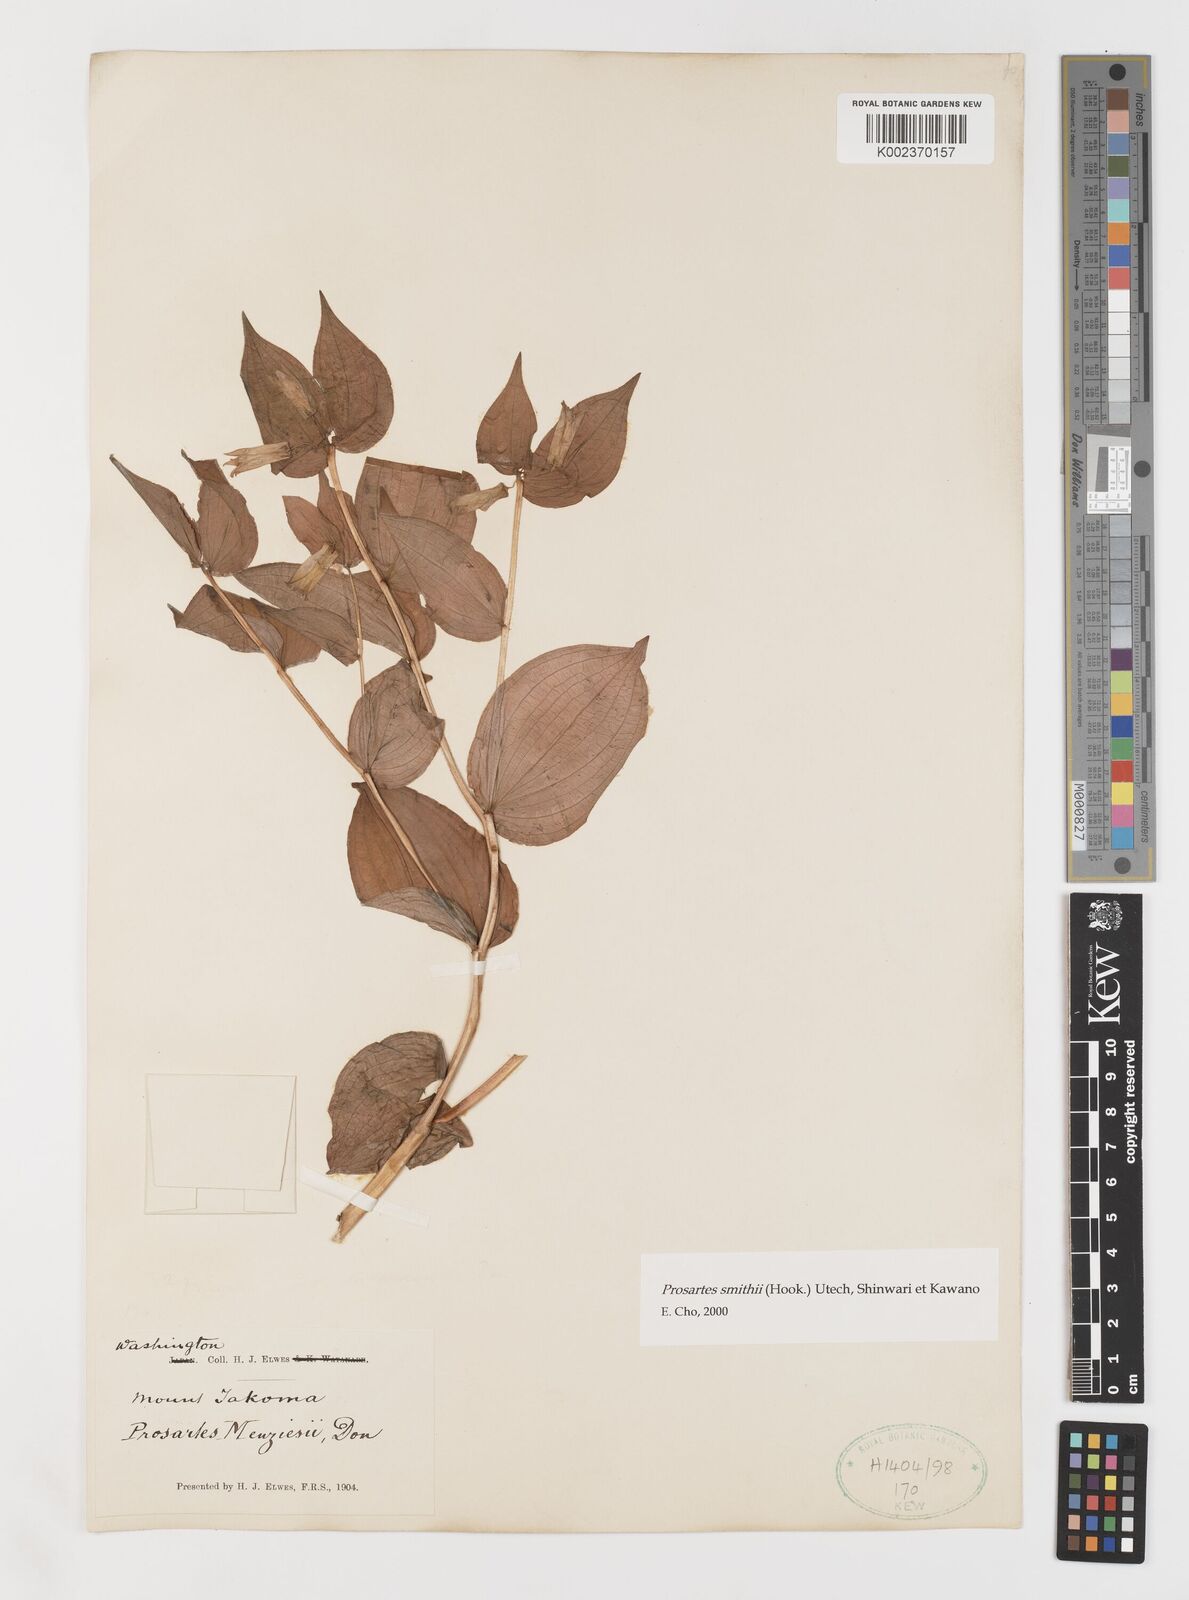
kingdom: Plantae
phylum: Tracheophyta
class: Liliopsida
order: Liliales
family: Liliaceae
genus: Prosartes
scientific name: Prosartes smithii
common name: Fairy-lantern
